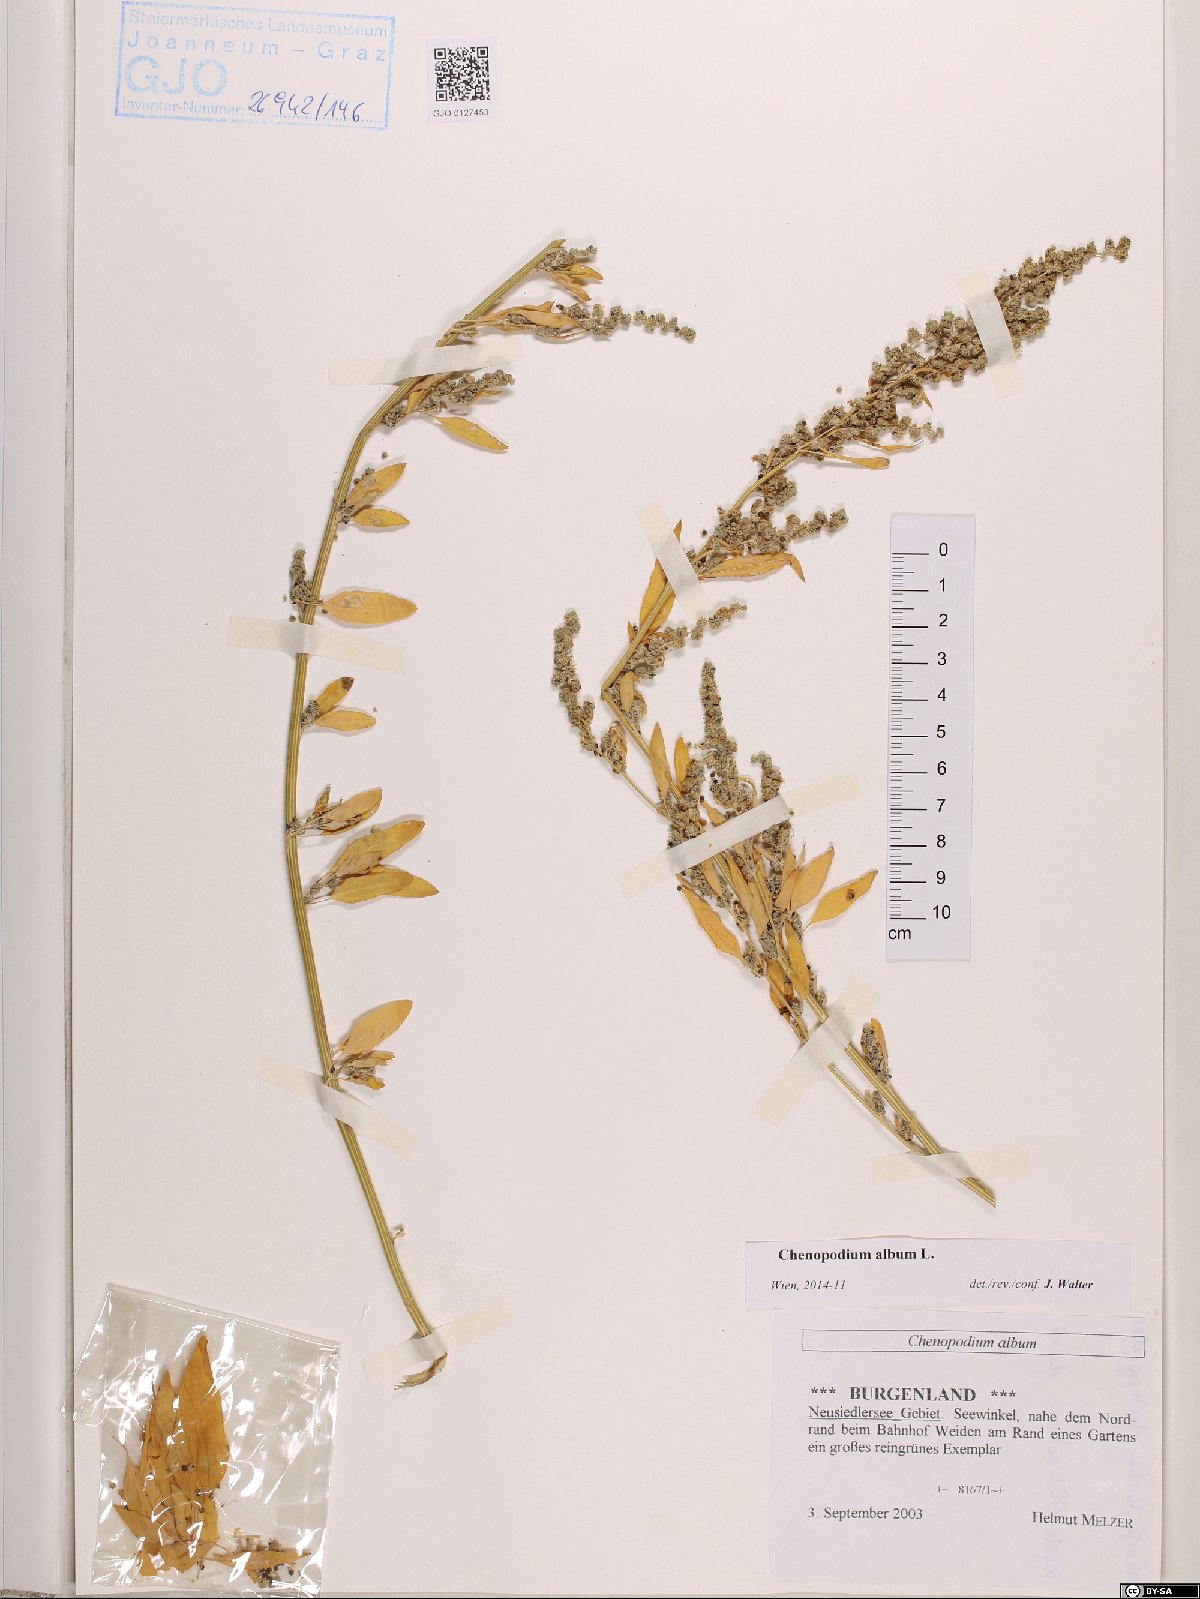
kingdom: Plantae
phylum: Tracheophyta
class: Magnoliopsida
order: Caryophyllales
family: Amaranthaceae
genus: Chenopodium
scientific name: Chenopodium album
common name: Fat-hen
